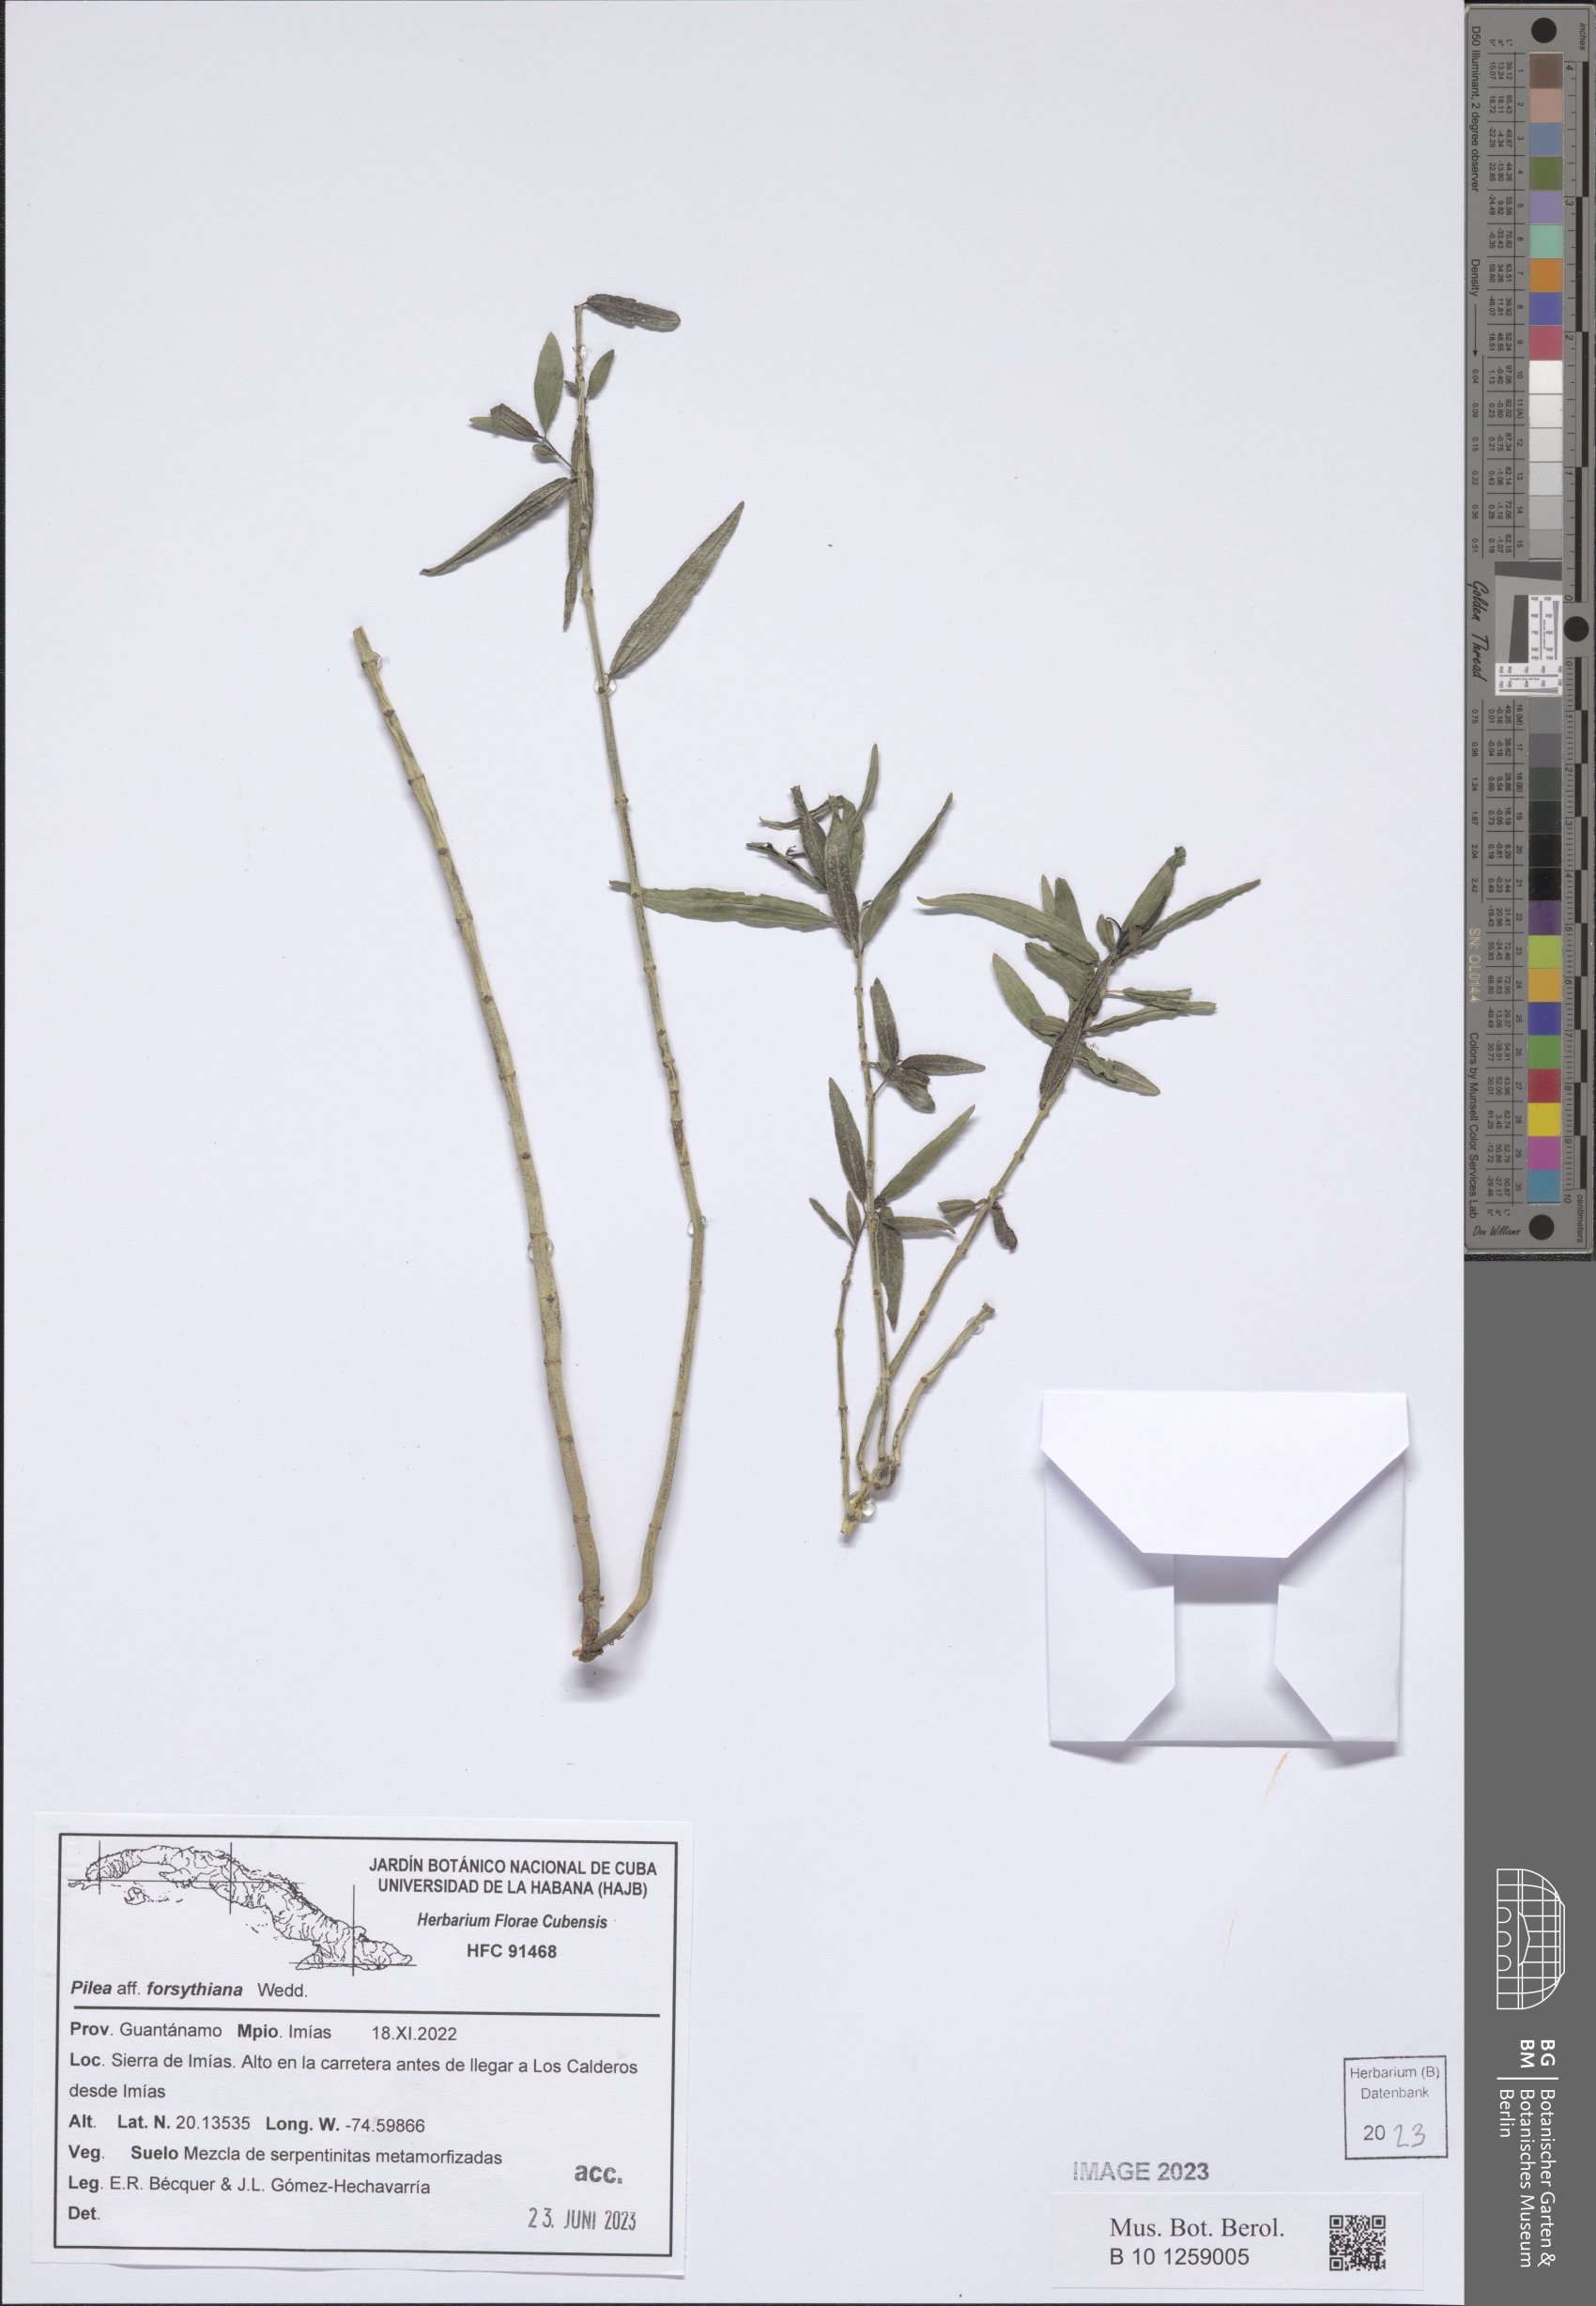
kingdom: Plantae
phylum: Tracheophyta
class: Magnoliopsida
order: Rosales
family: Urticaceae
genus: Pilea
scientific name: Pilea forsythiana
